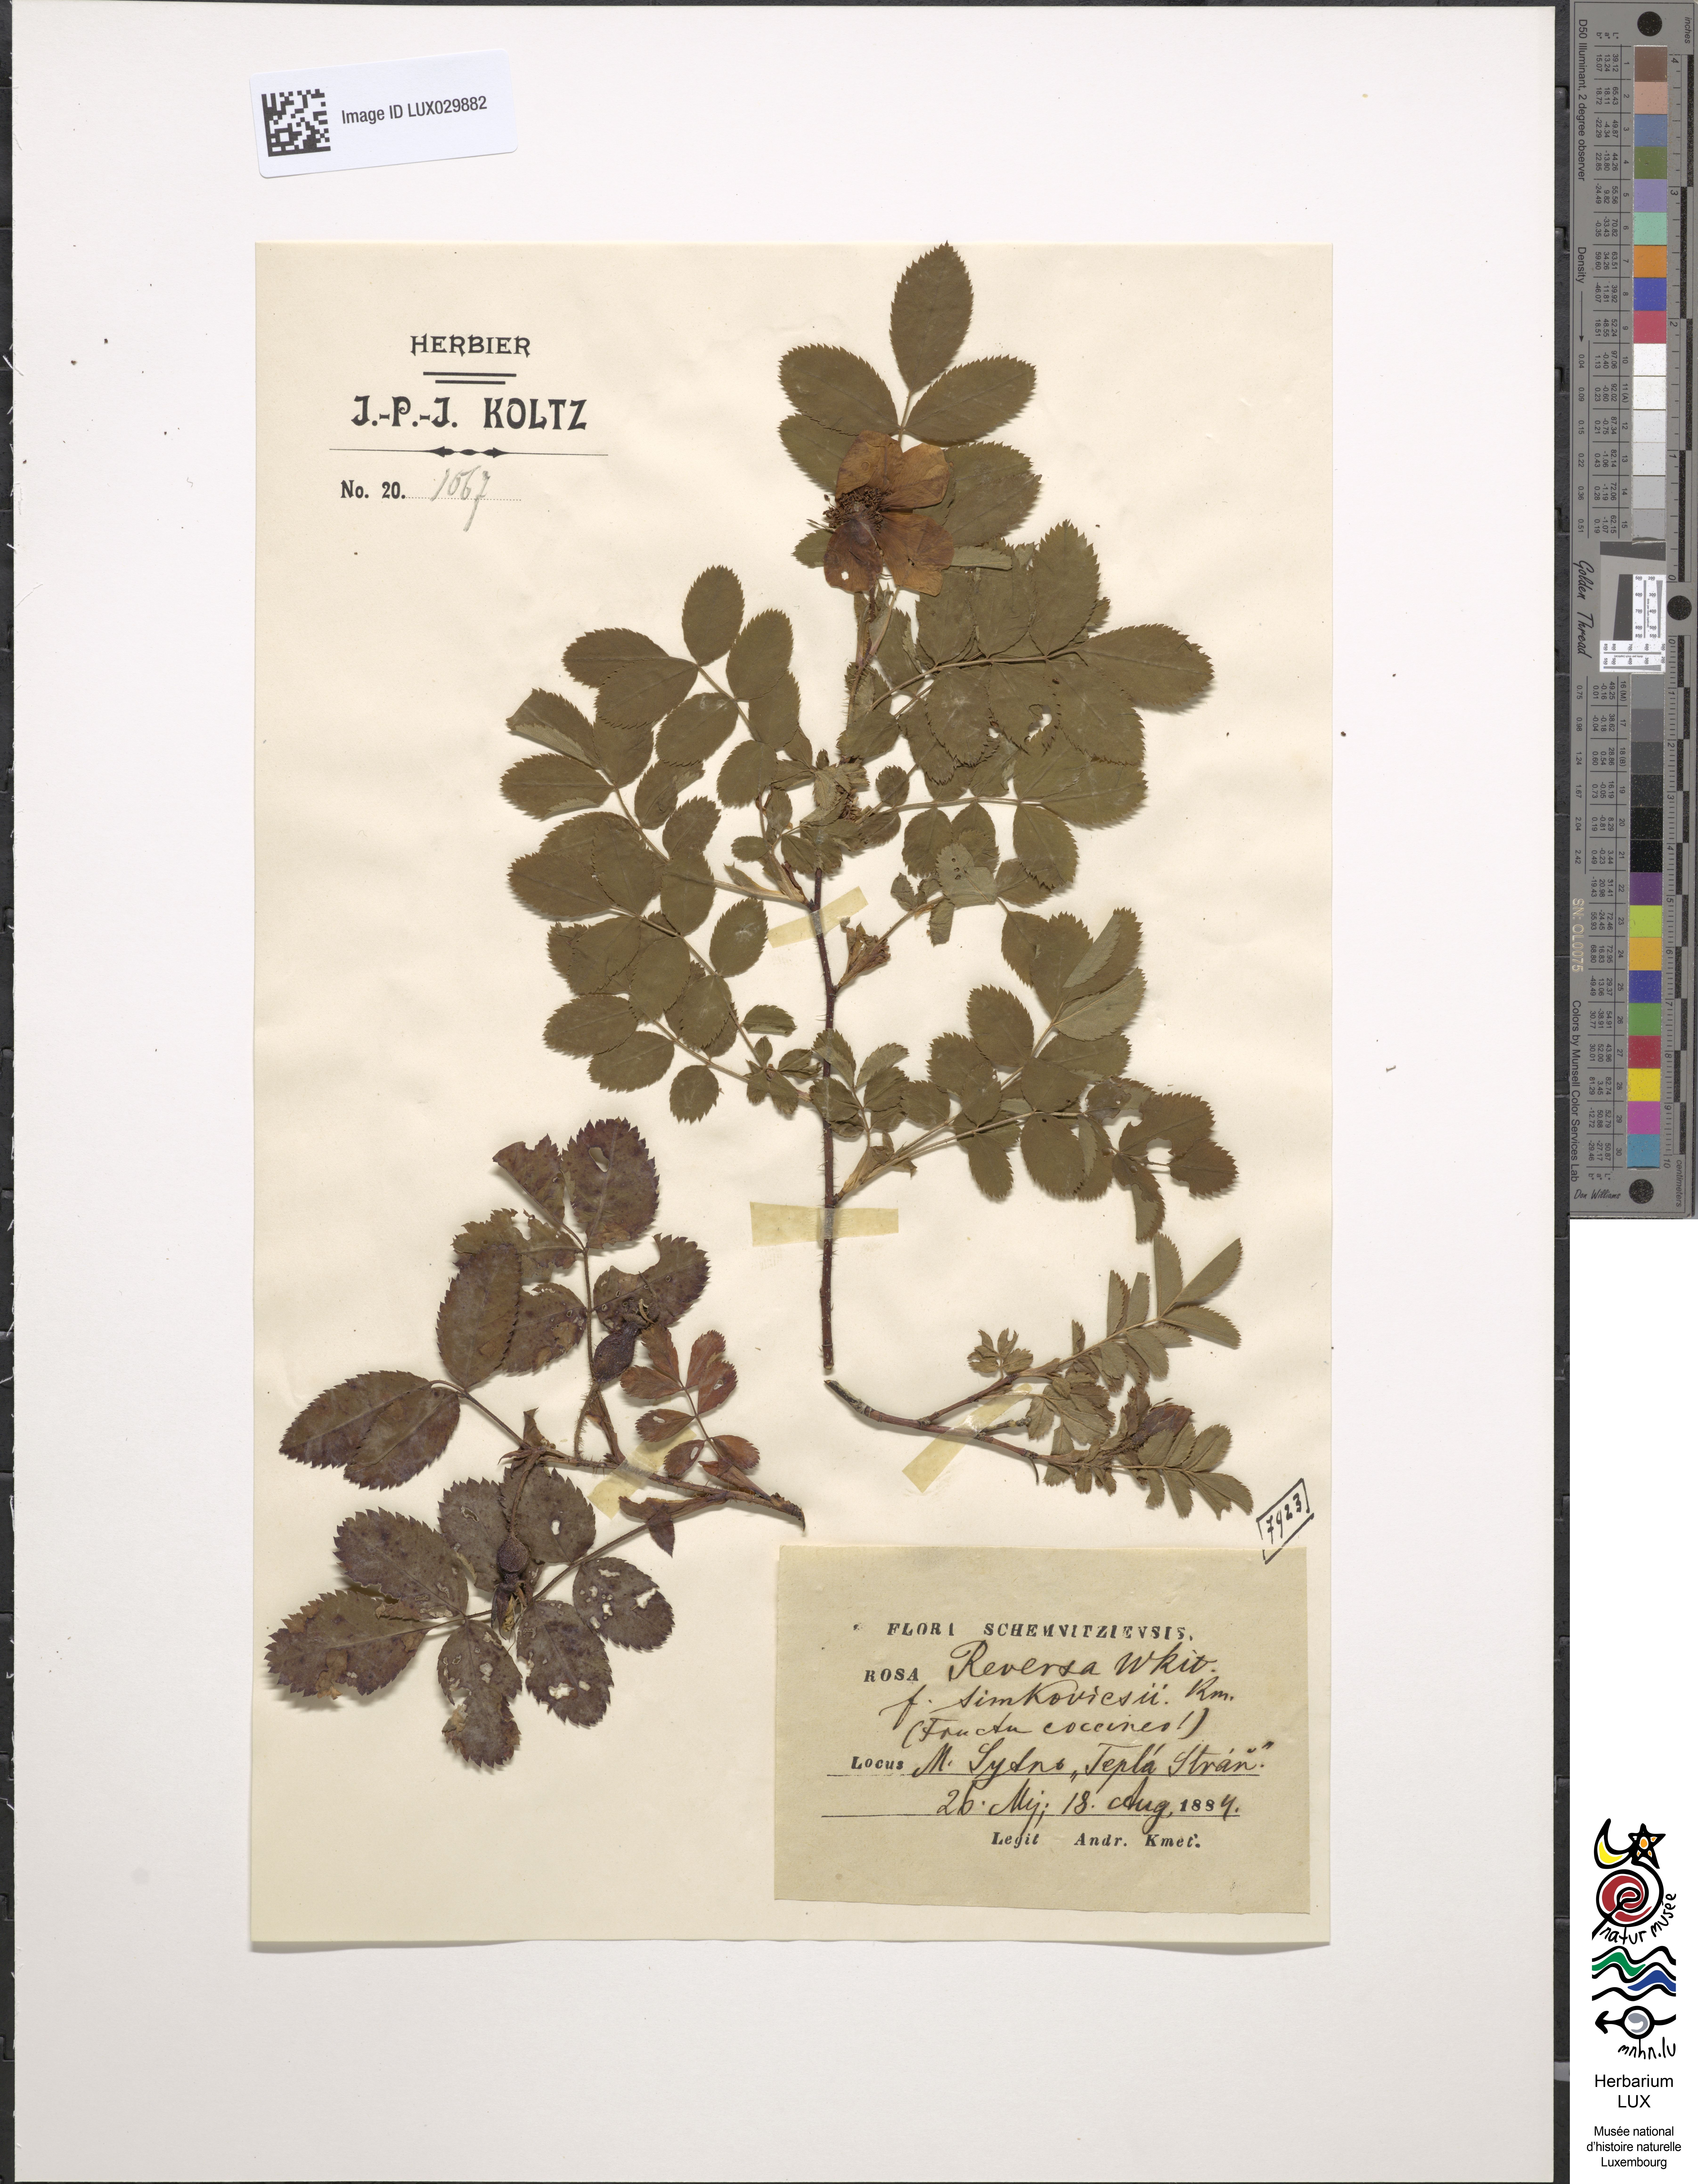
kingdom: Plantae
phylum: Tracheophyta
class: Magnoliopsida
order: Rosales
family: Rosaceae
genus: Rosa
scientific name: Rosa reversa
